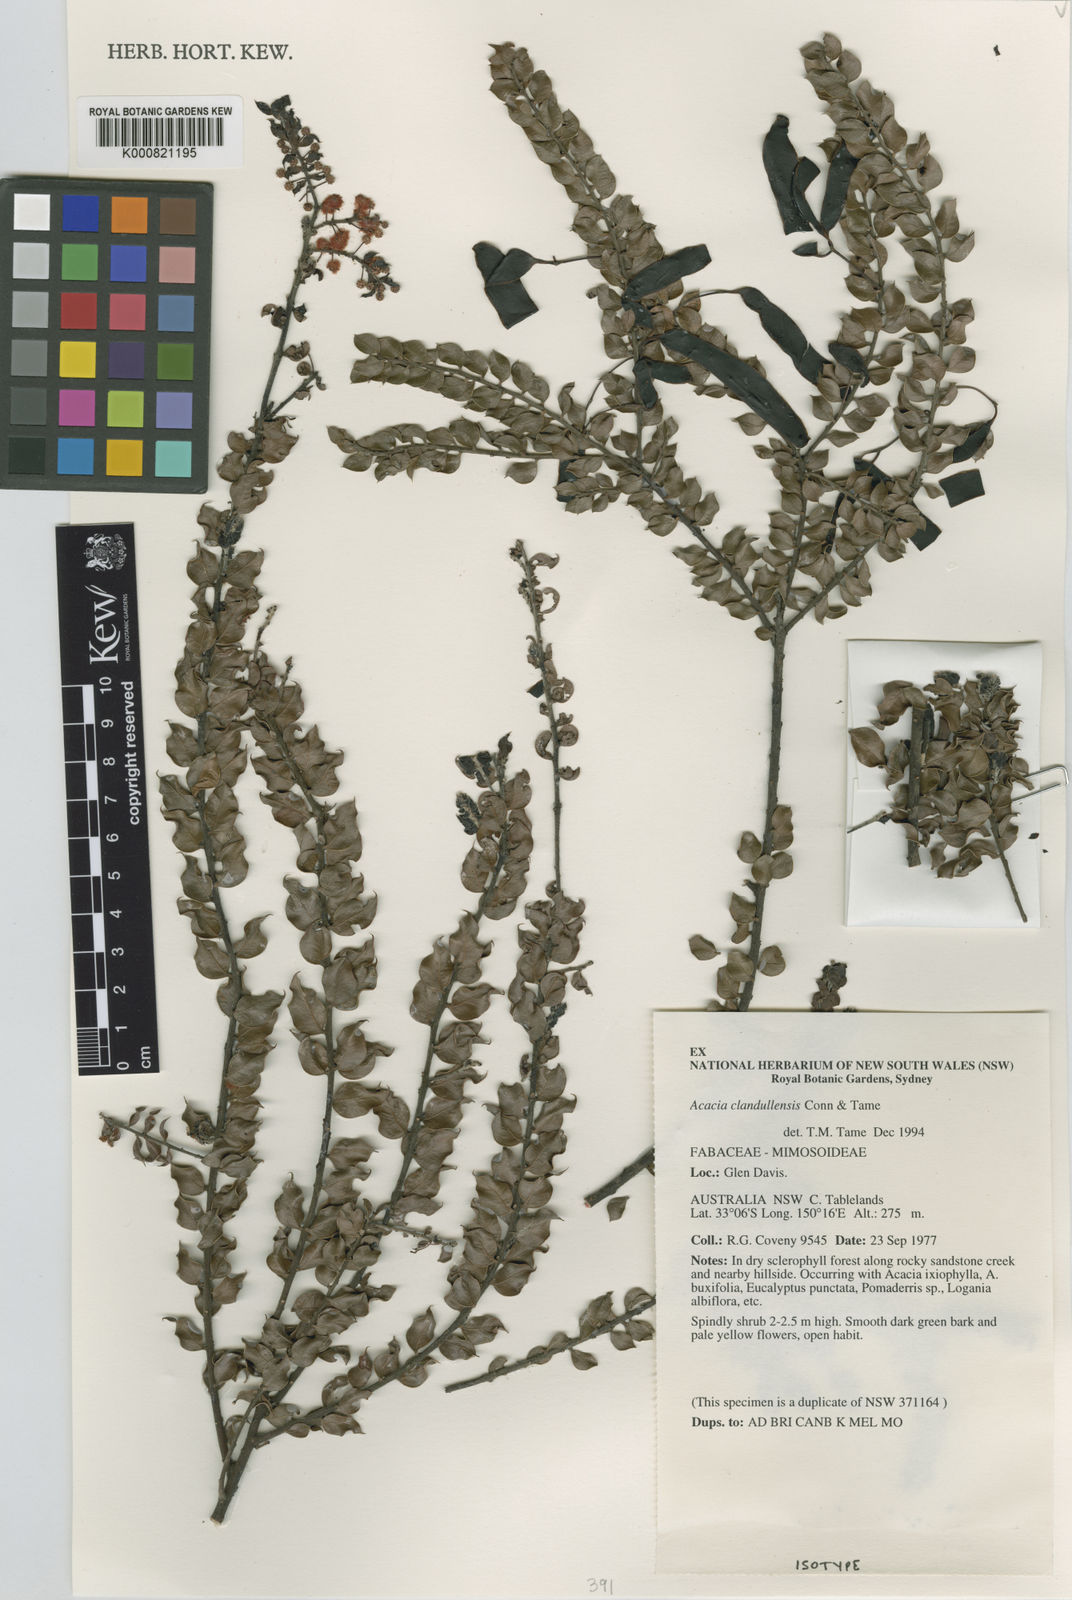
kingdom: Plantae
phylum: Tracheophyta
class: Magnoliopsida
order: Fabales
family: Fabaceae
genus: Acacia
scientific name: Acacia clandullensis
